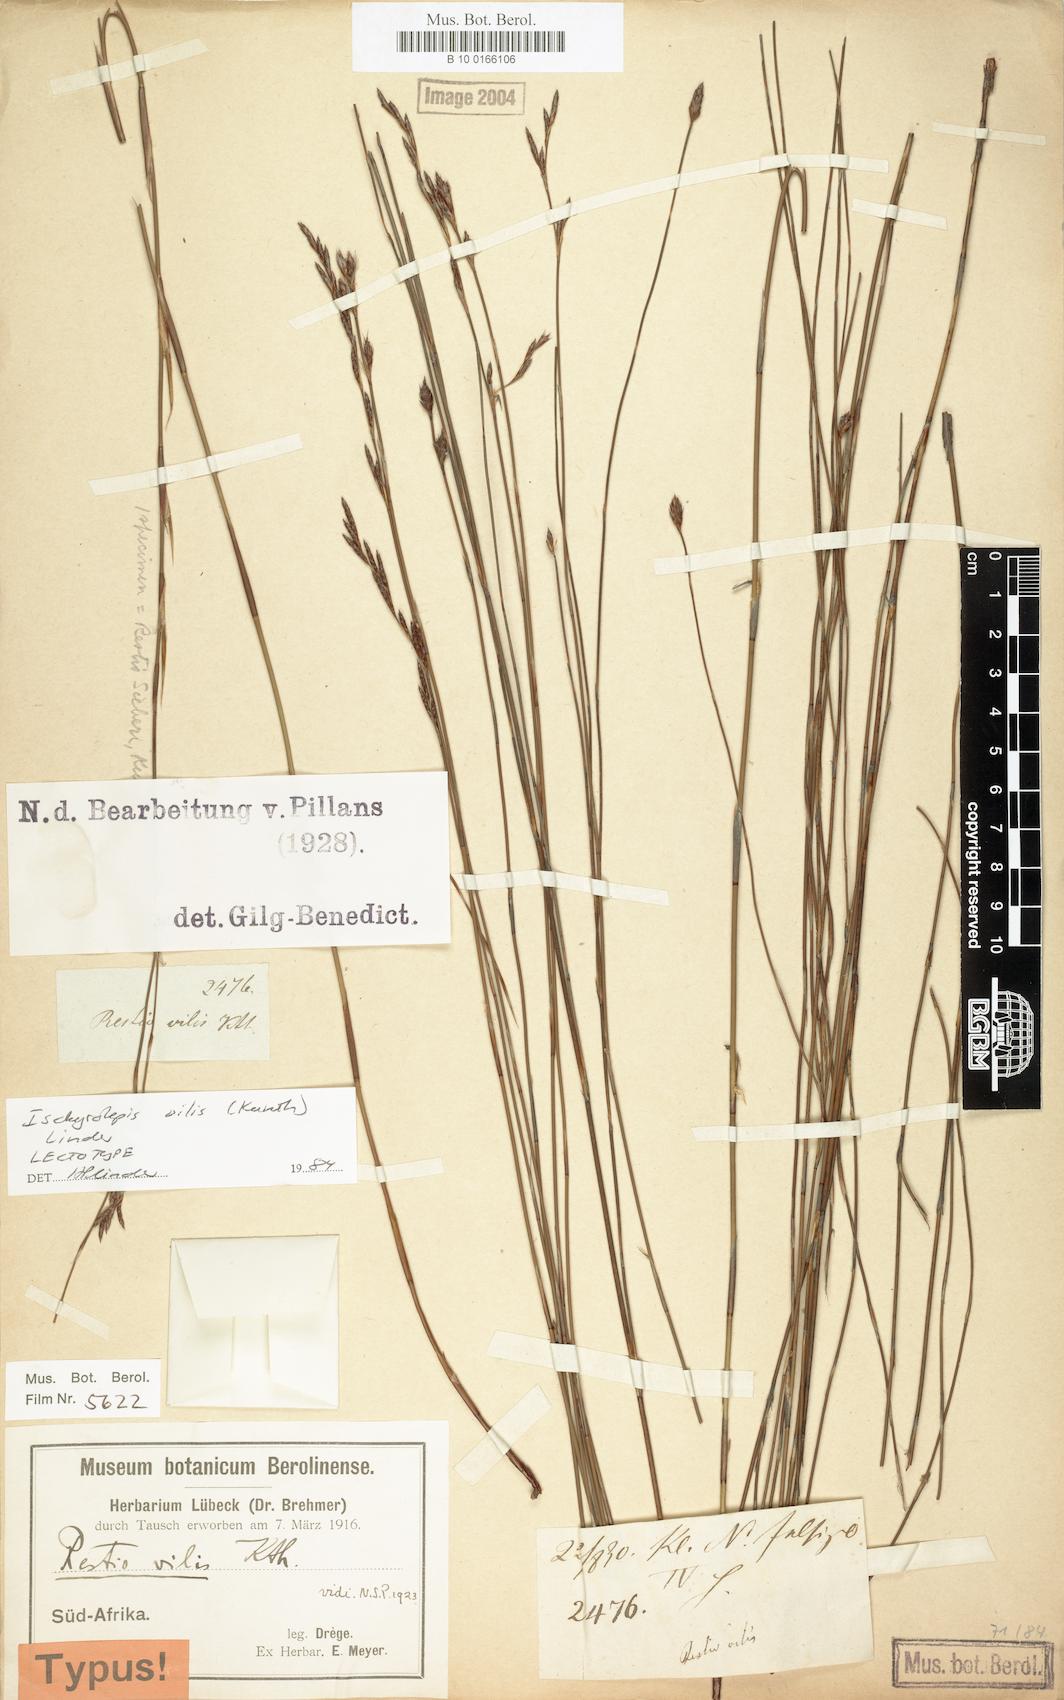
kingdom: Plantae
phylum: Tracheophyta
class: Liliopsida
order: Poales
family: Restionaceae
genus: Restio
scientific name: Restio vilis
